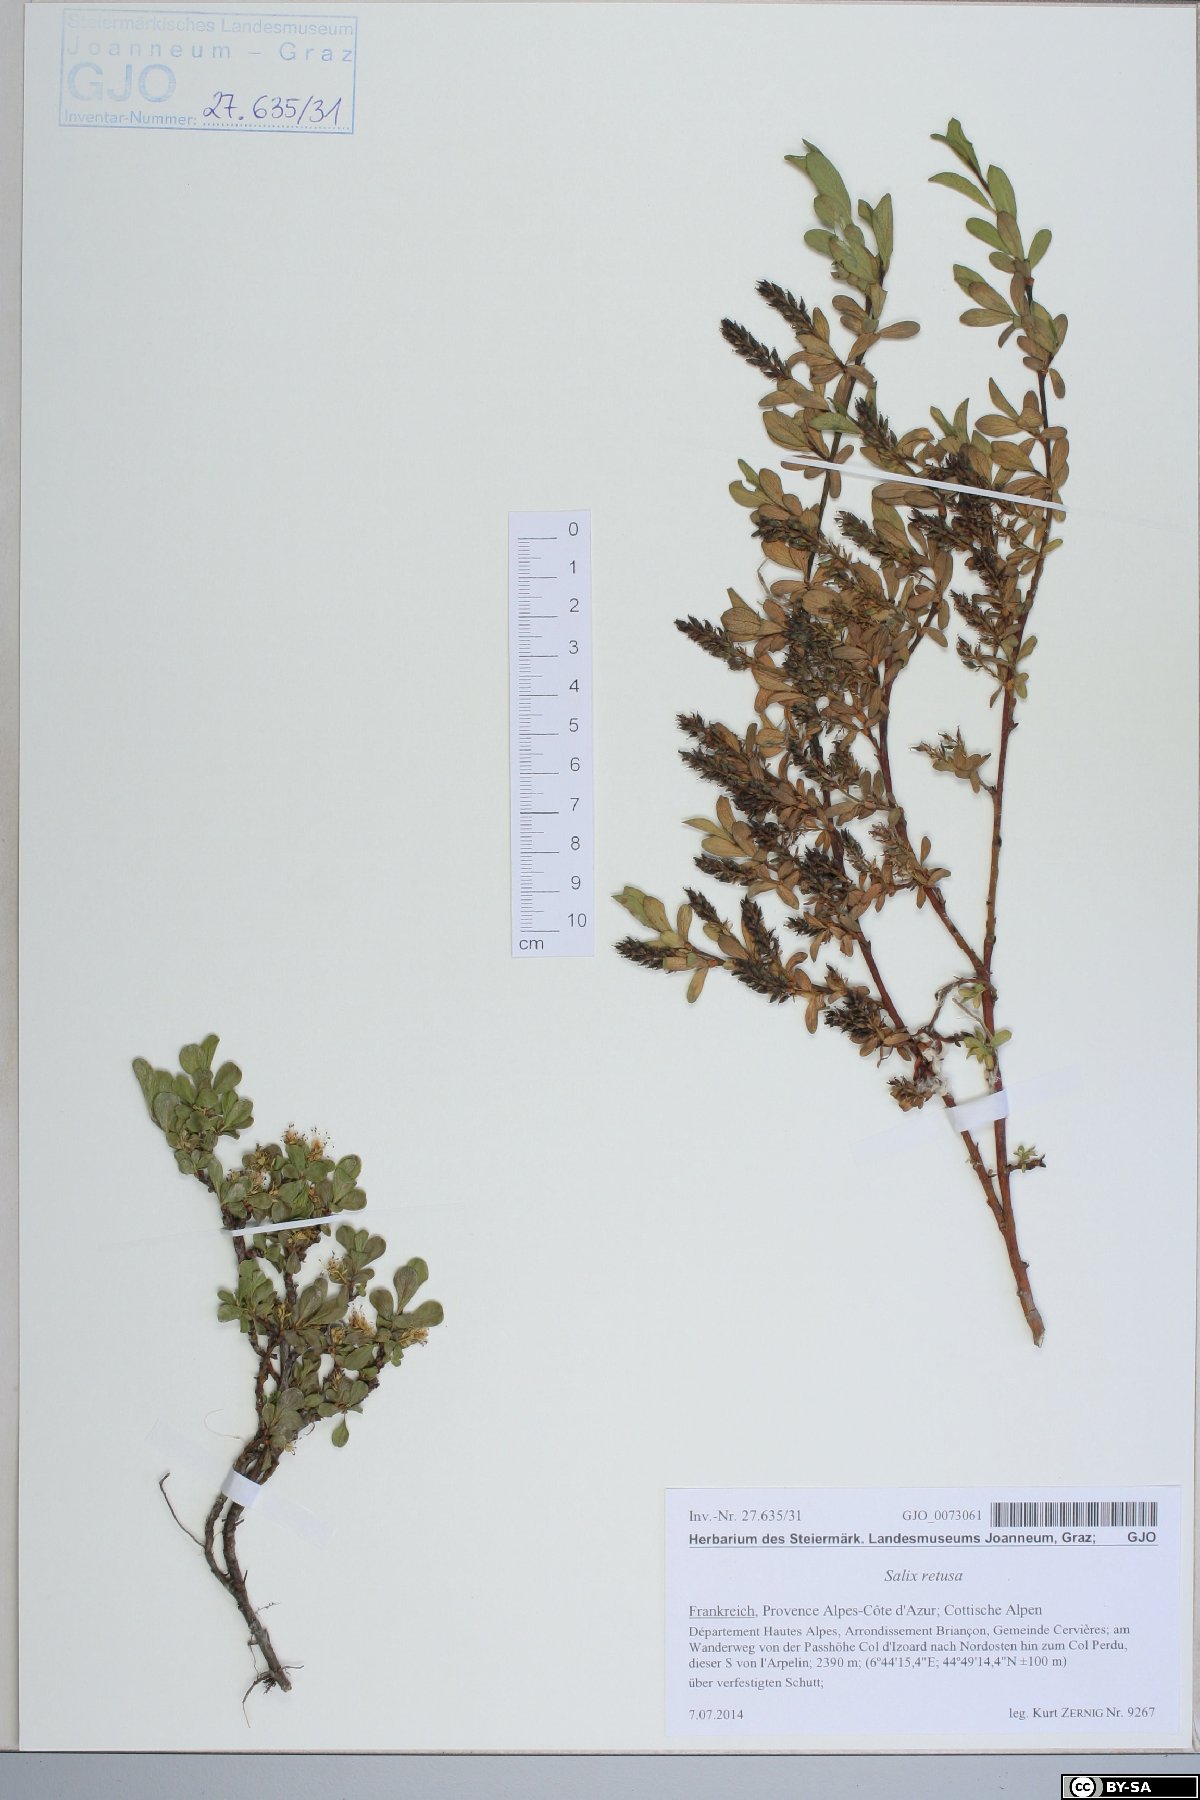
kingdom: Plantae
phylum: Tracheophyta
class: Magnoliopsida
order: Malpighiales
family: Salicaceae
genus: Salix
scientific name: Salix retusa
